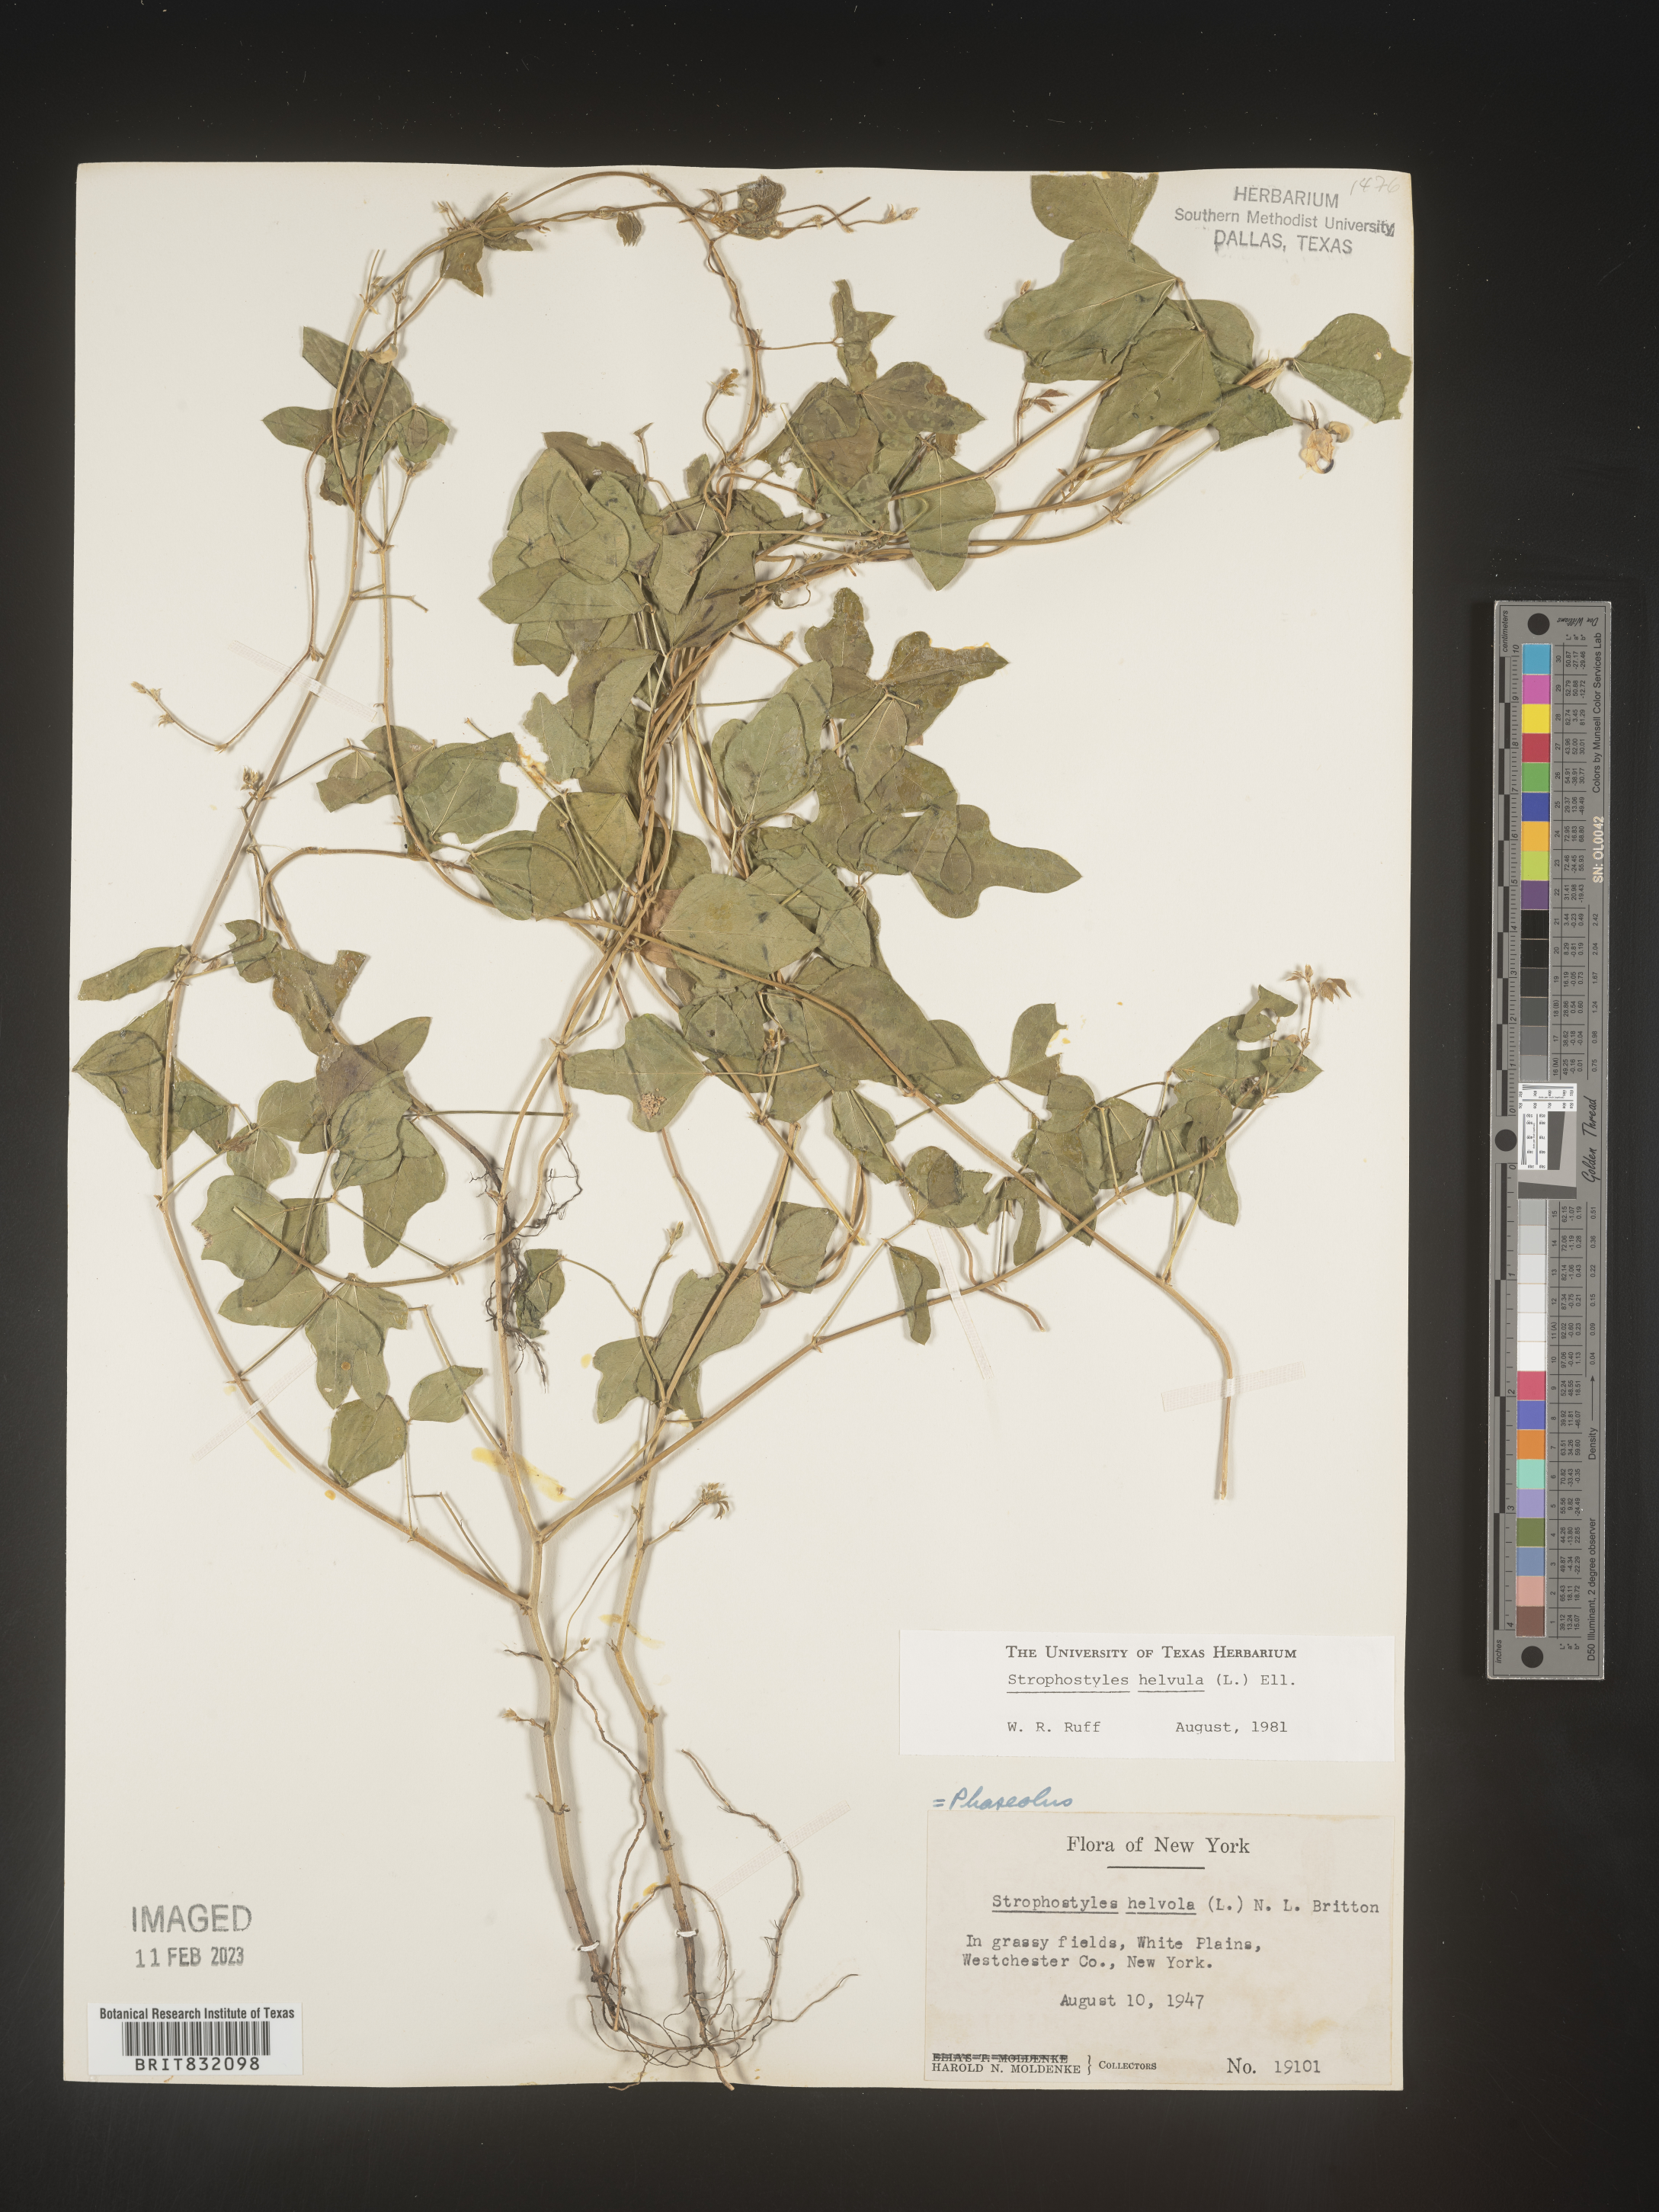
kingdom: Plantae
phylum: Tracheophyta
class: Magnoliopsida
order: Fabales
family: Fabaceae
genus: Strophostyles
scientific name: Strophostyles helvola
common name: Trailing wild bean
